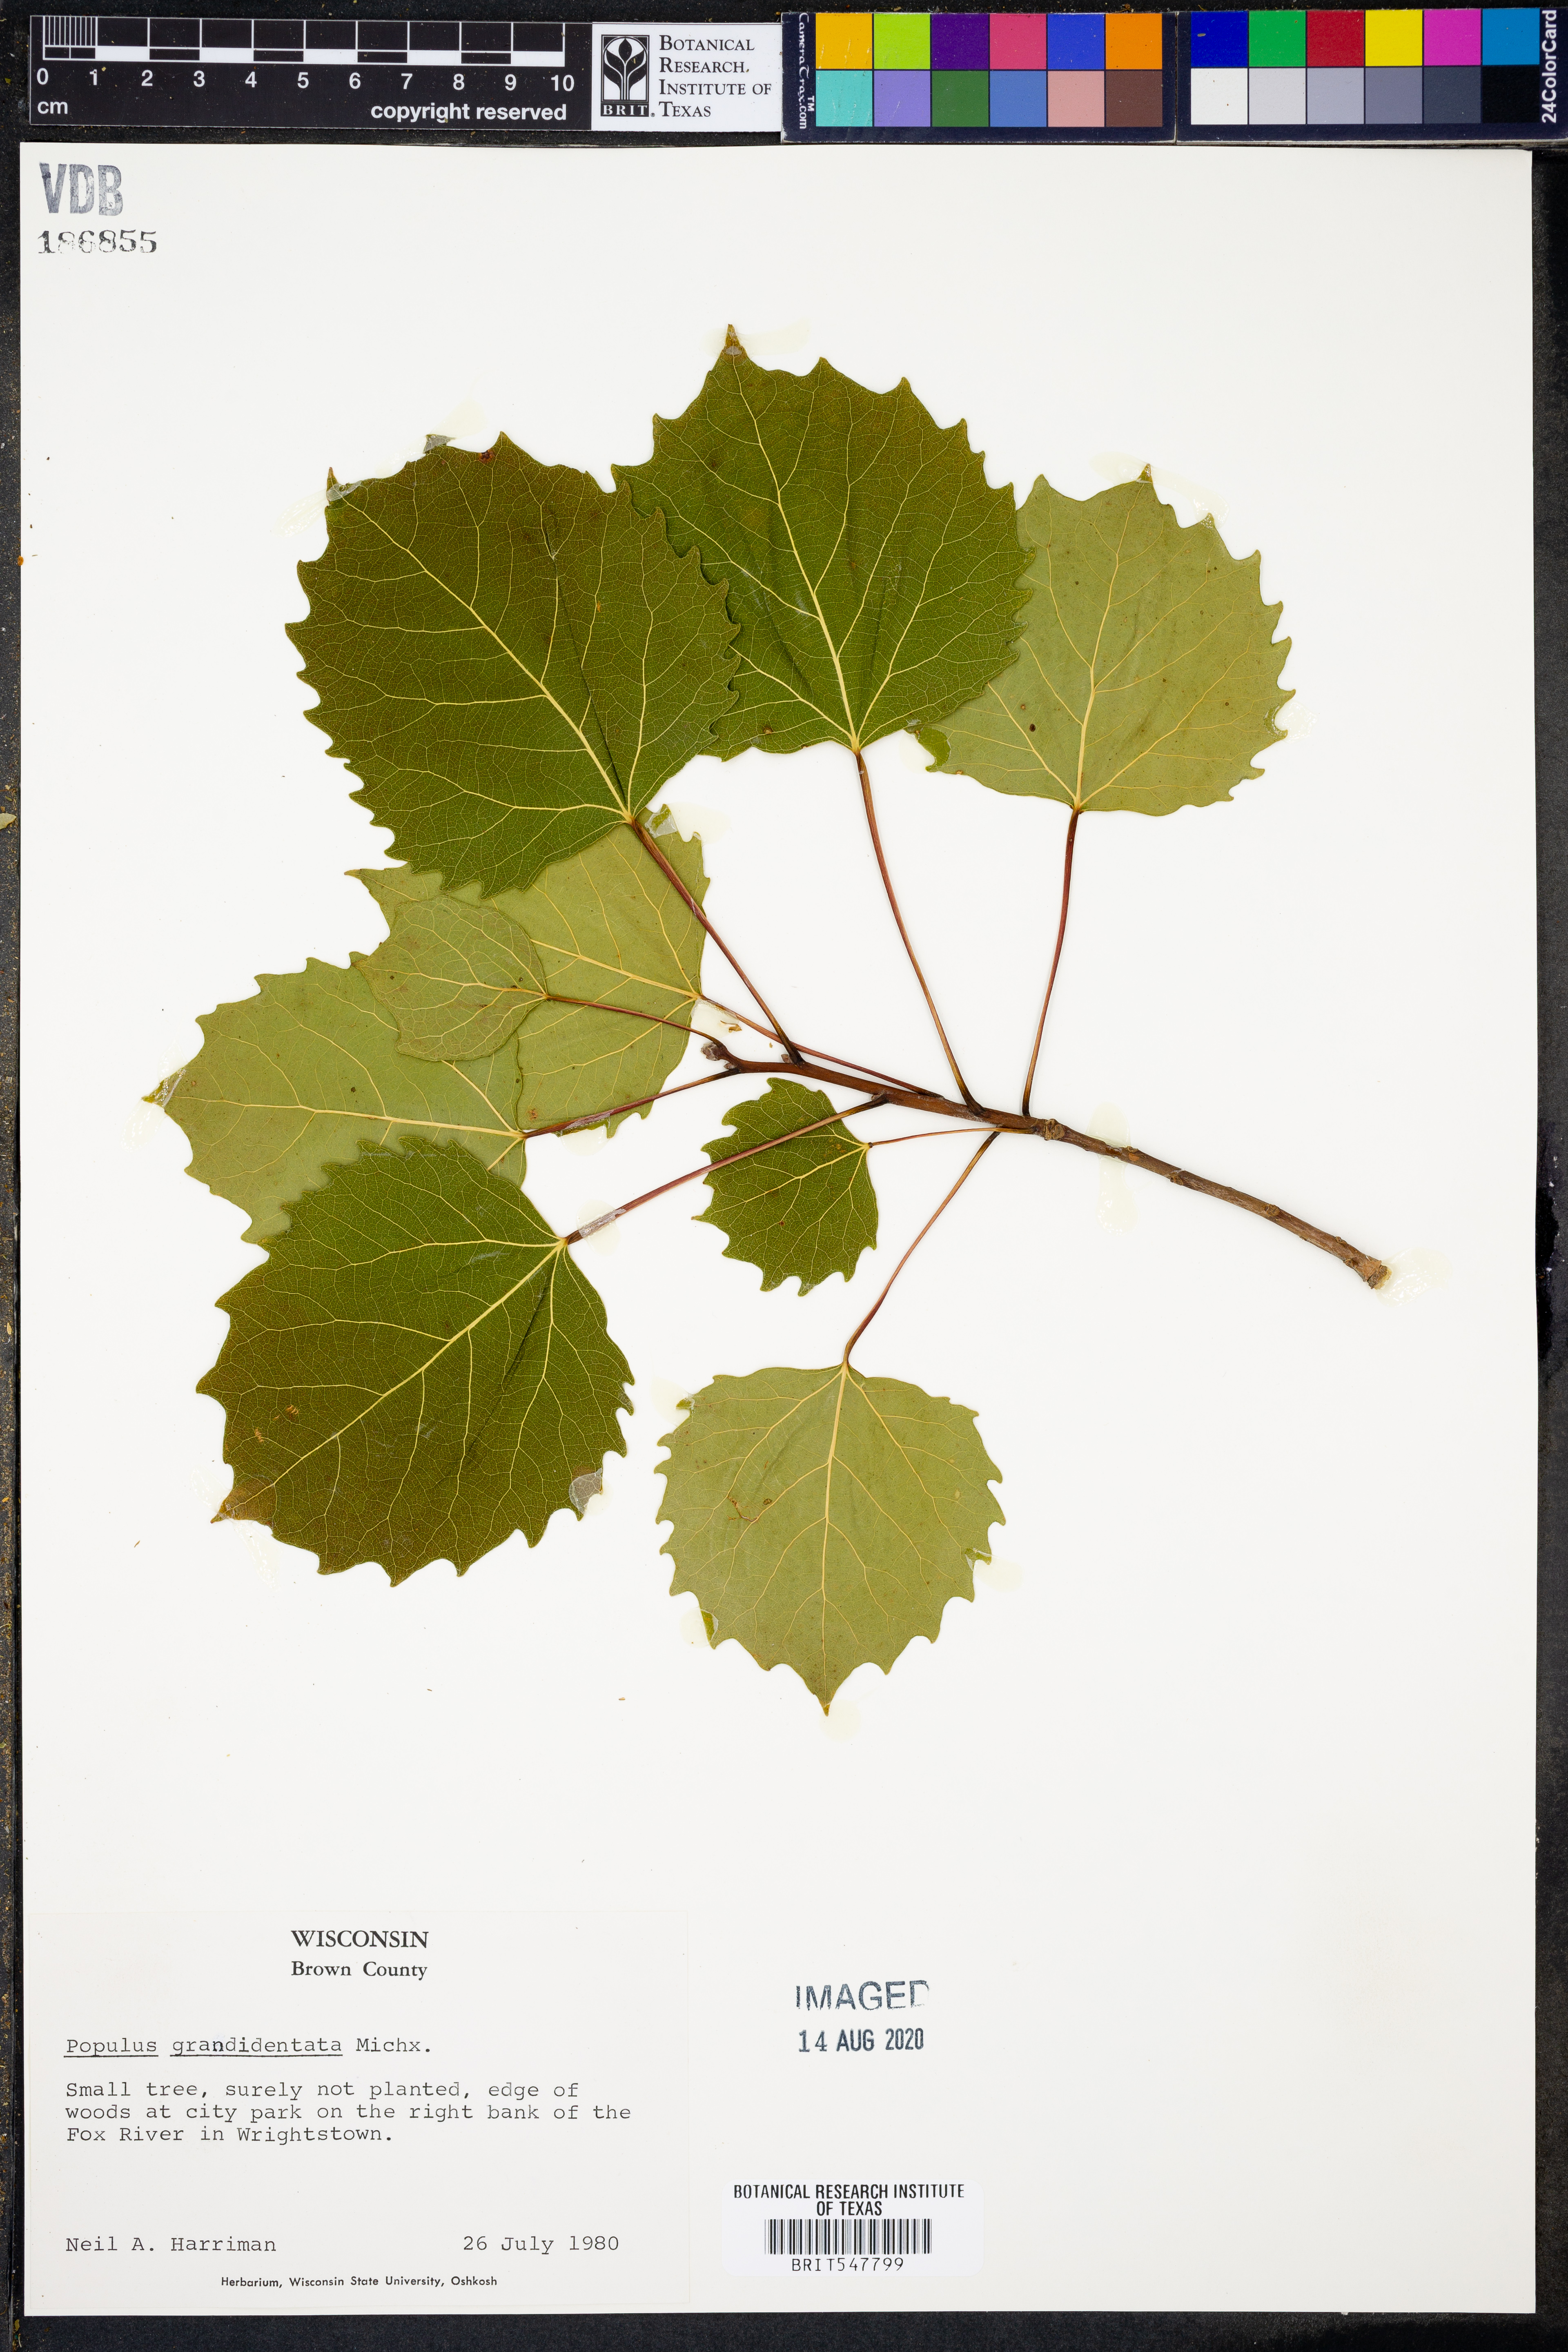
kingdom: Plantae
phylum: Tracheophyta
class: Magnoliopsida
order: Malpighiales
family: Salicaceae
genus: Populus
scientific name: Populus grandidentata
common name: Bigtooth aspen
